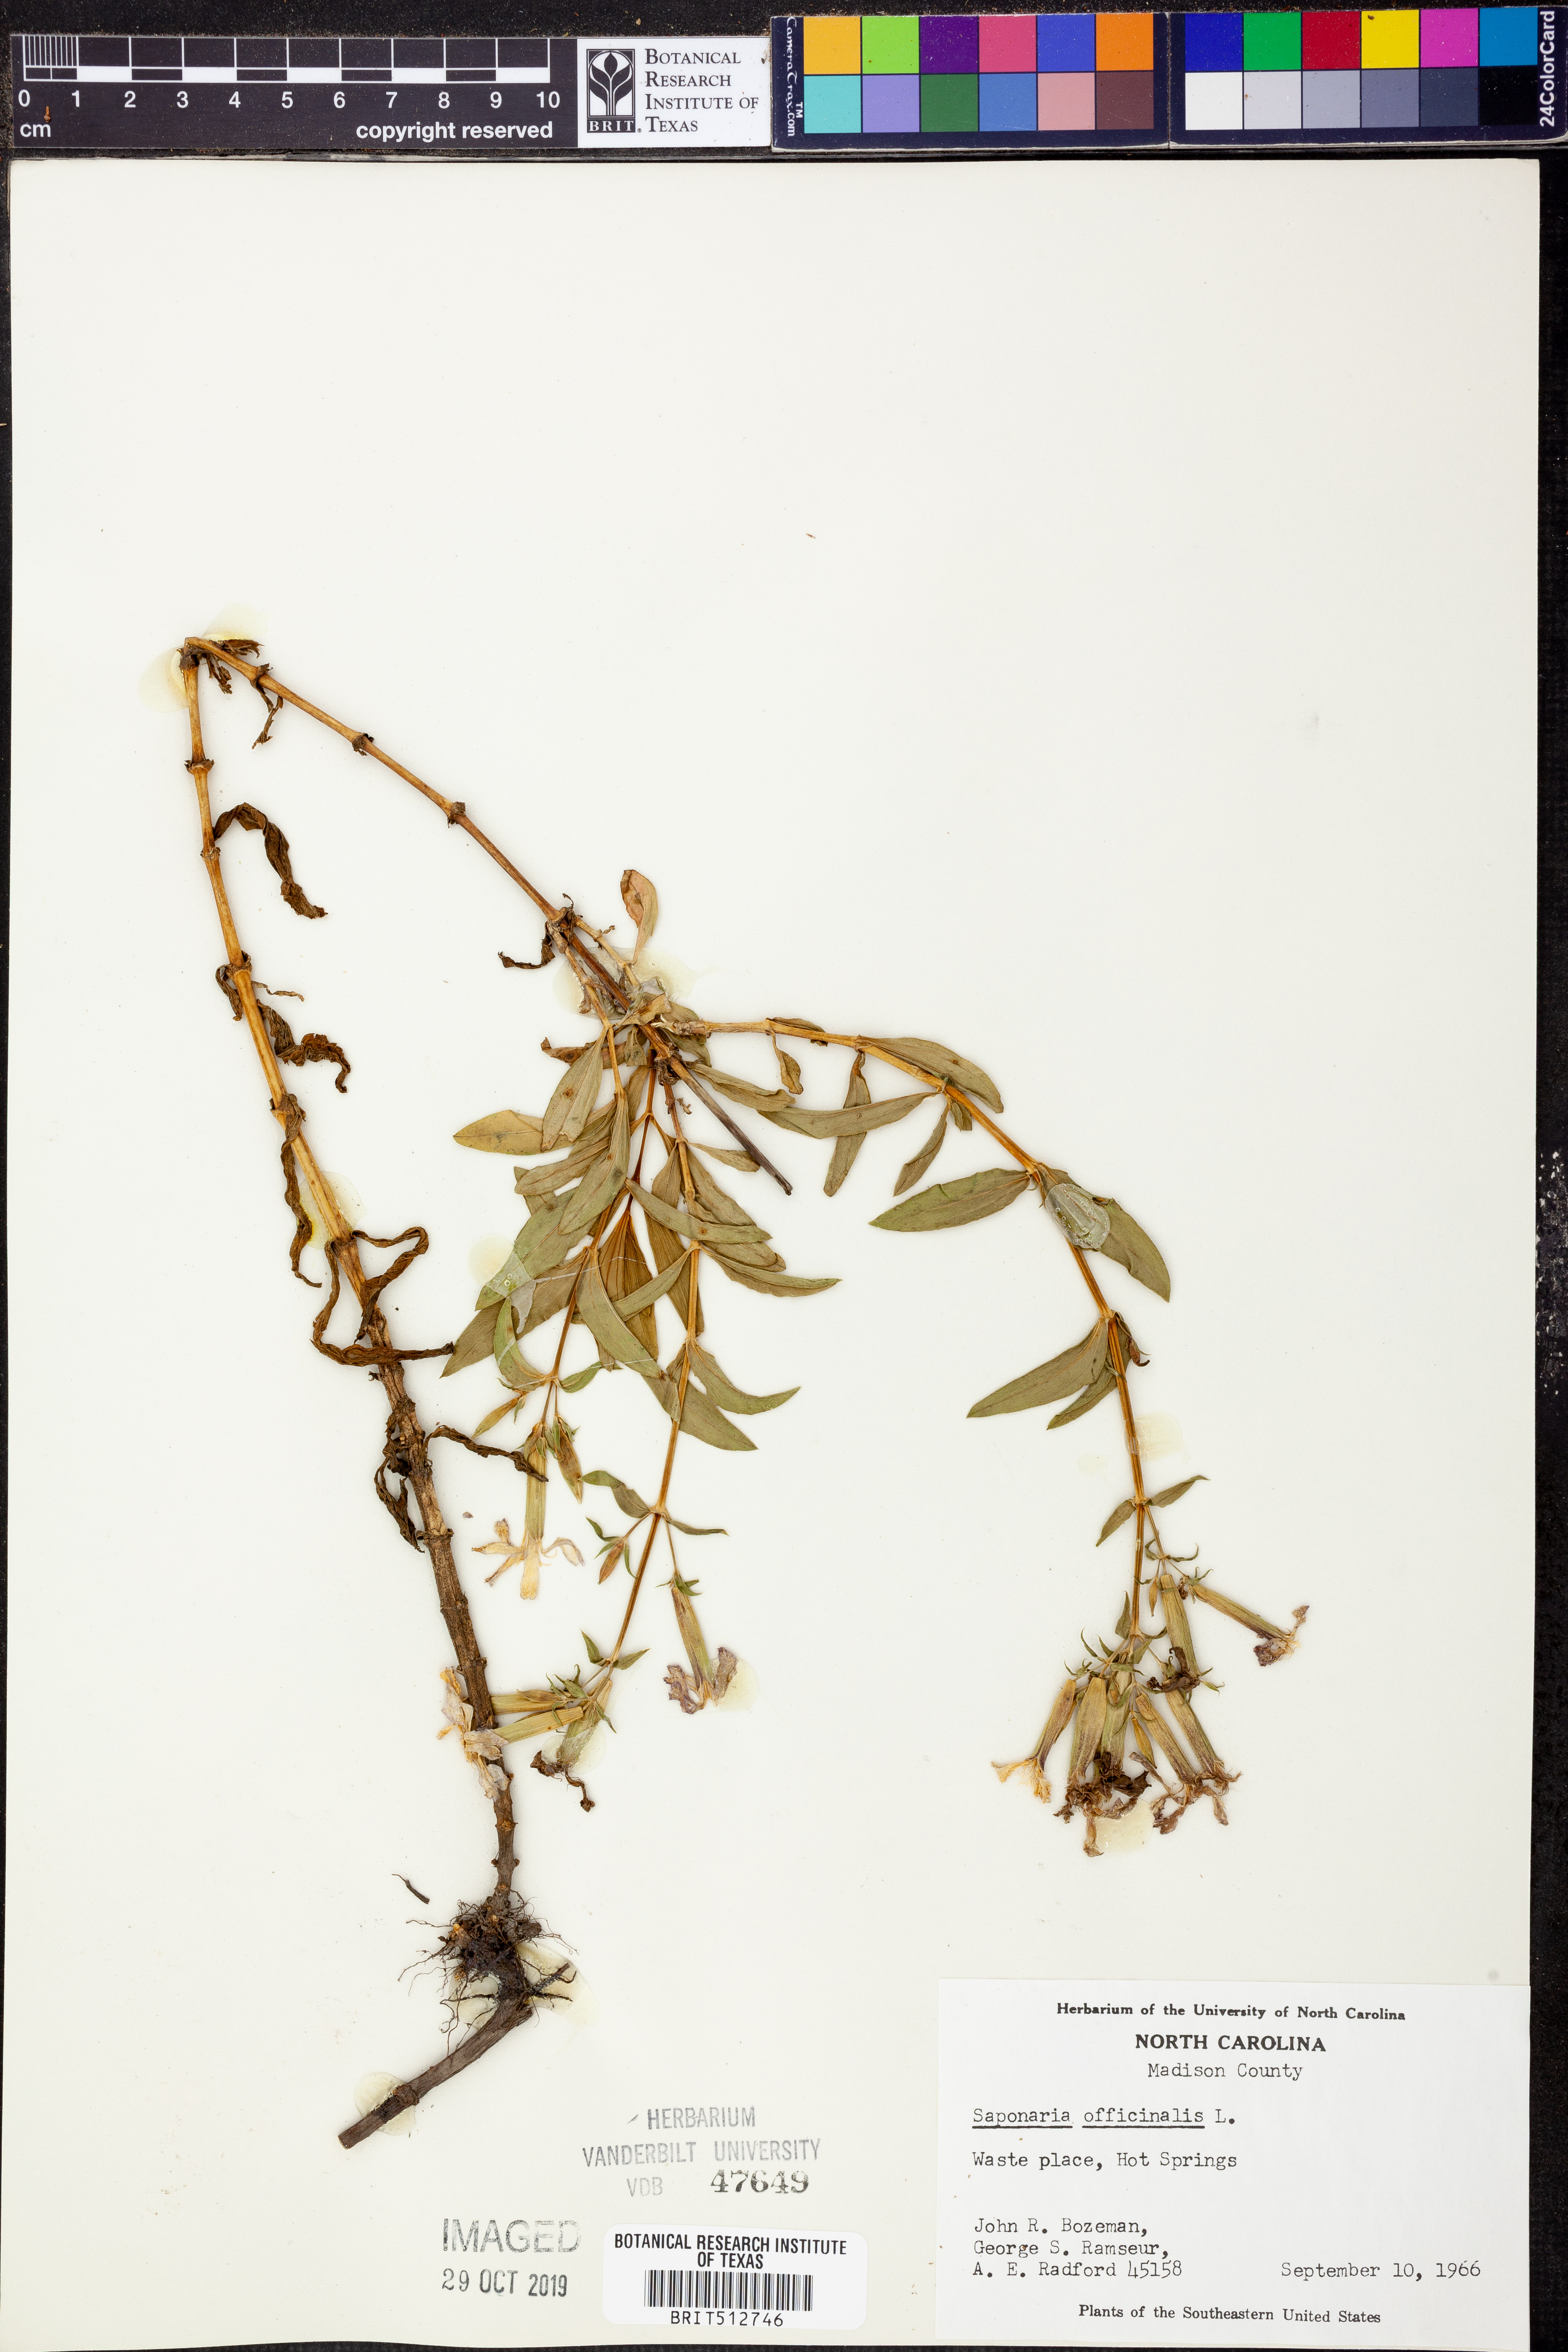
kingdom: Plantae
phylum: Tracheophyta
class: Magnoliopsida
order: Caryophyllales
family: Caryophyllaceae
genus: Saponaria
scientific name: Saponaria officinalis
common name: Soapwort
